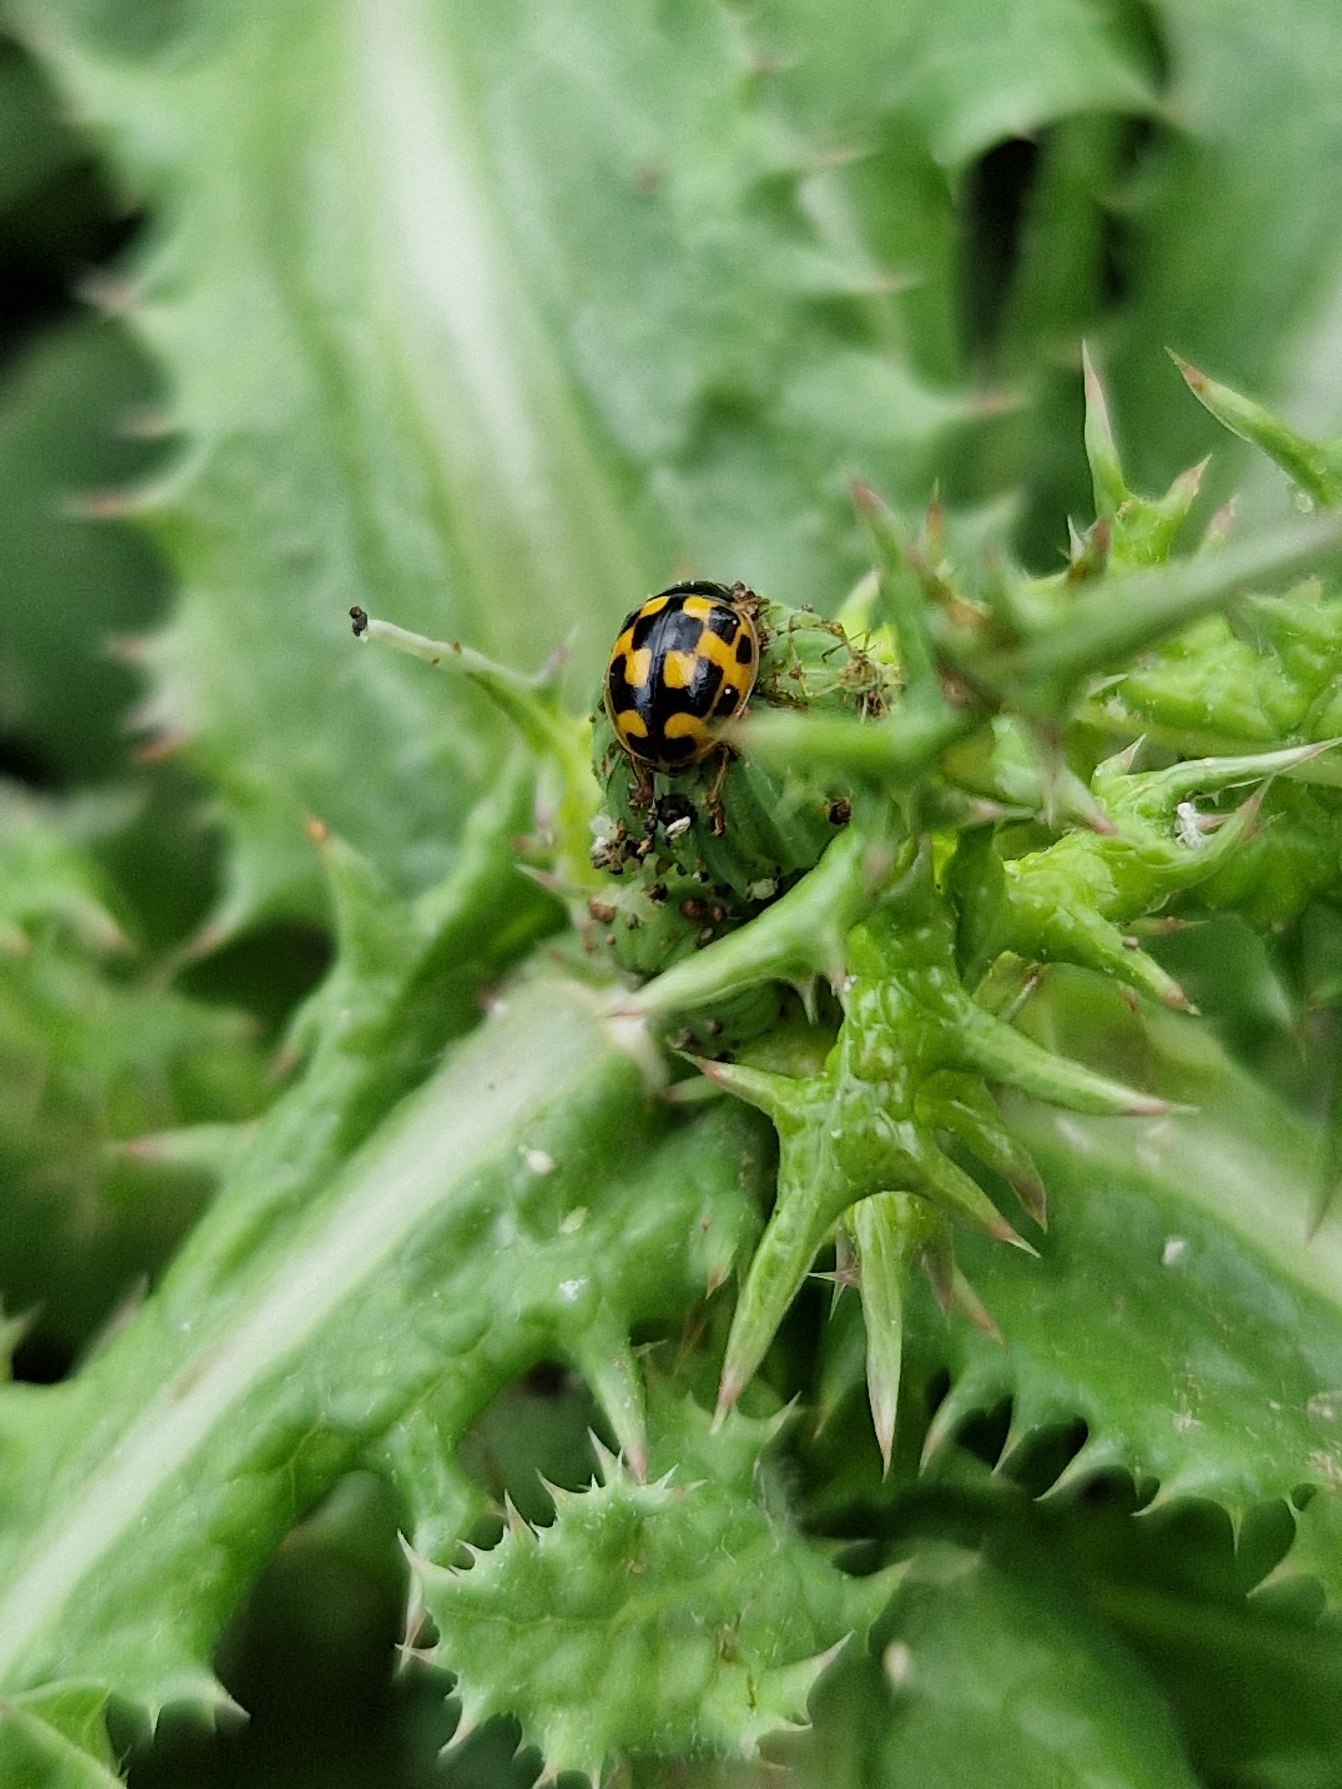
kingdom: Animalia
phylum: Arthropoda
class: Insecta
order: Coleoptera
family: Coccinellidae
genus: Propylaea
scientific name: Propylaea quatuordecimpunctata
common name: Skakbræt
